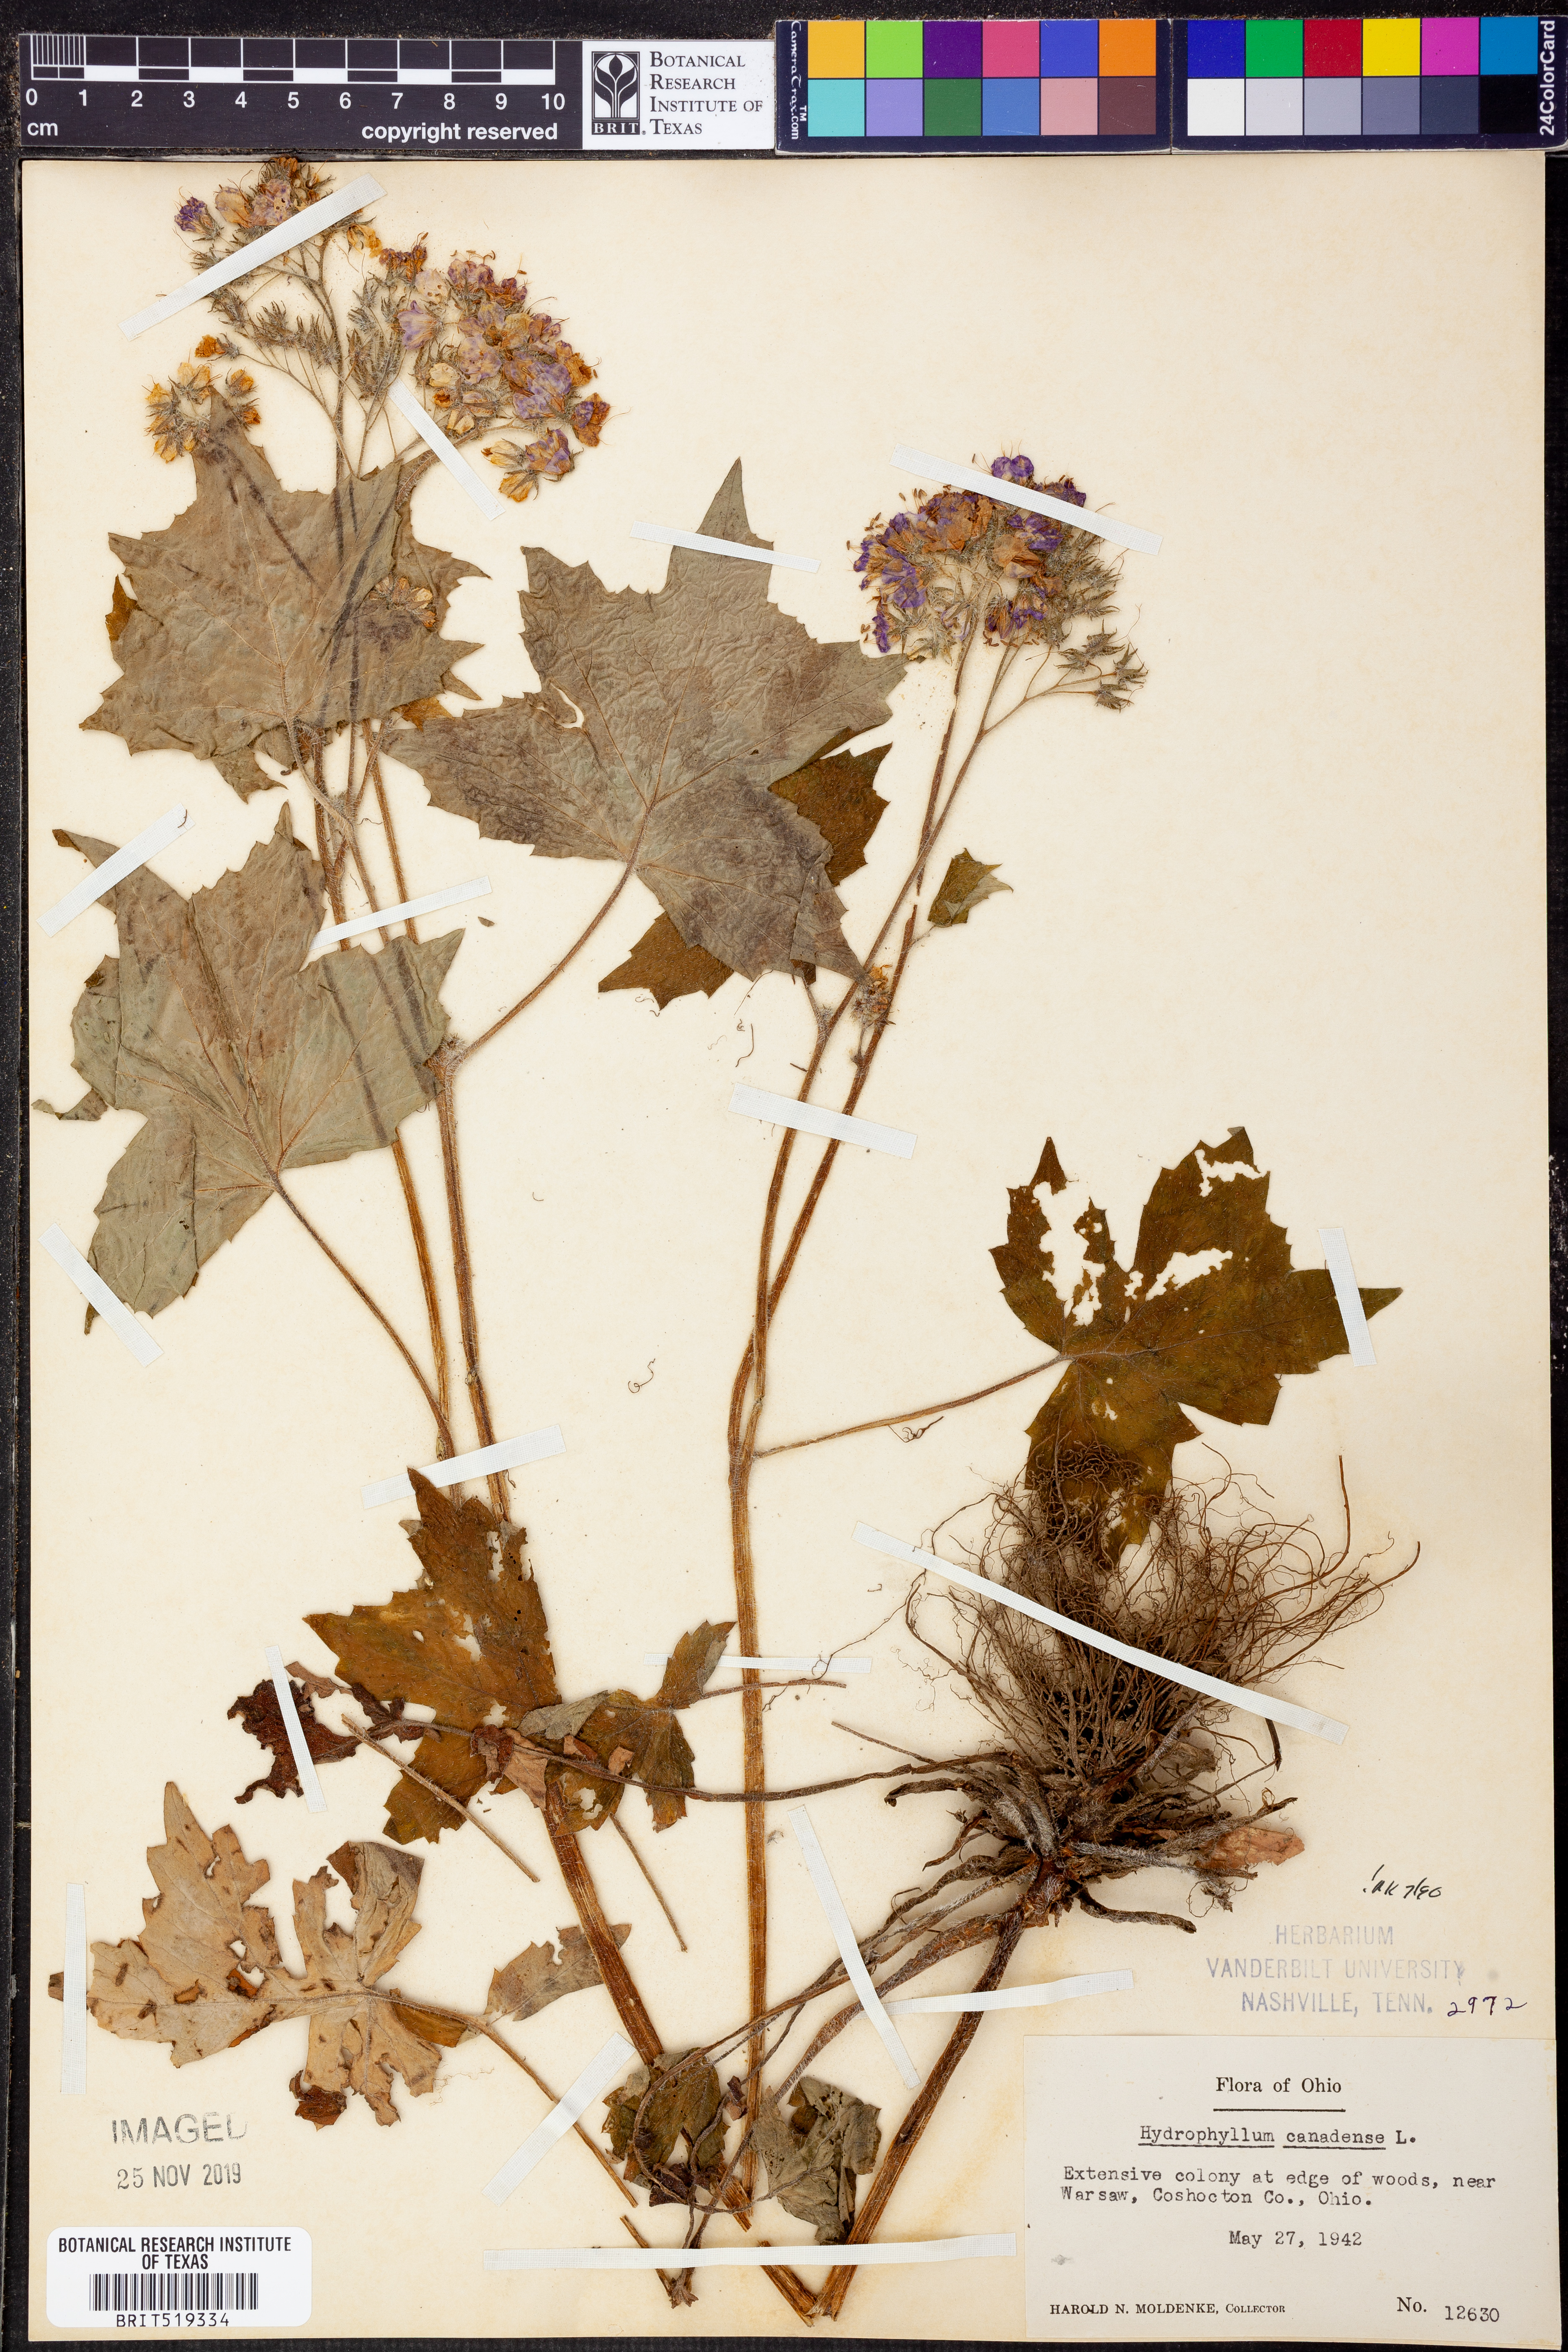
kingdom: Plantae
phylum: Tracheophyta
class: Magnoliopsida
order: Boraginales
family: Hydrophyllaceae
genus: Hydrophyllum
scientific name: Hydrophyllum canadense
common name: Canada waterleaf
